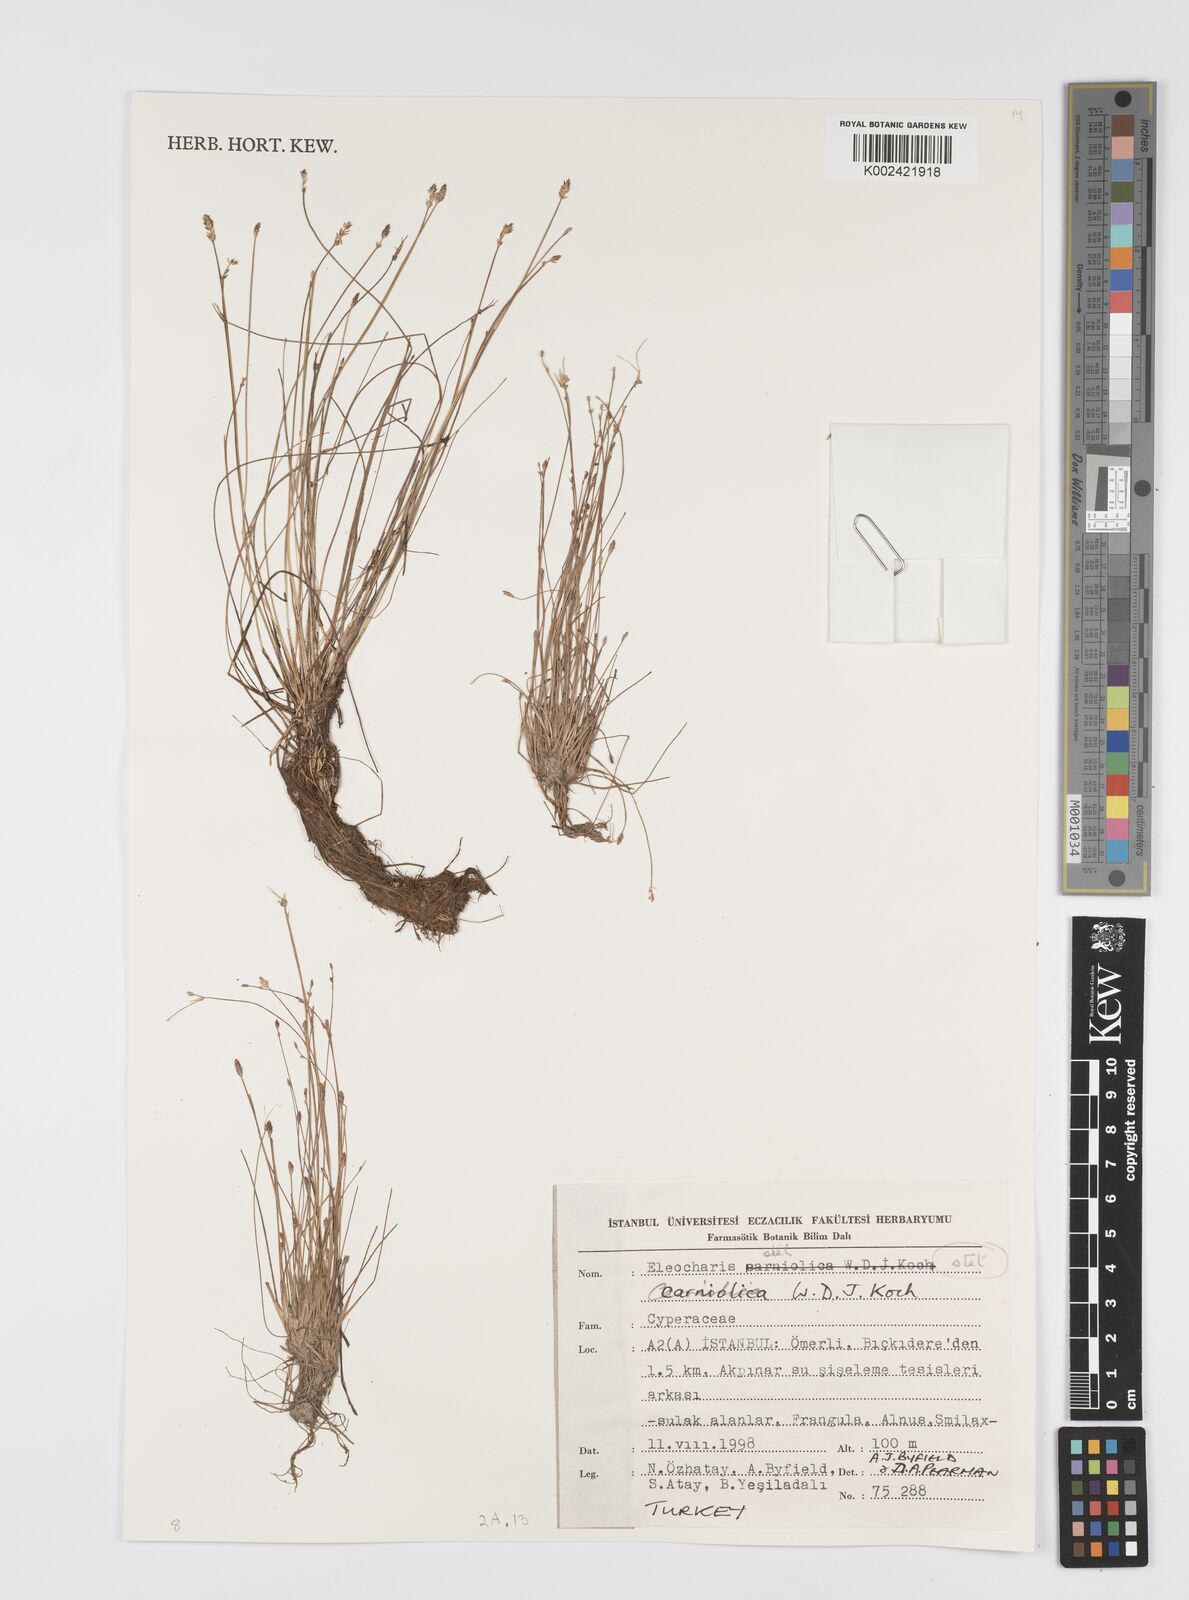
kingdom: Plantae
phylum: Tracheophyta
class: Liliopsida
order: Poales
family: Cyperaceae
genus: Eleocharis
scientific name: Eleocharis carniolica
